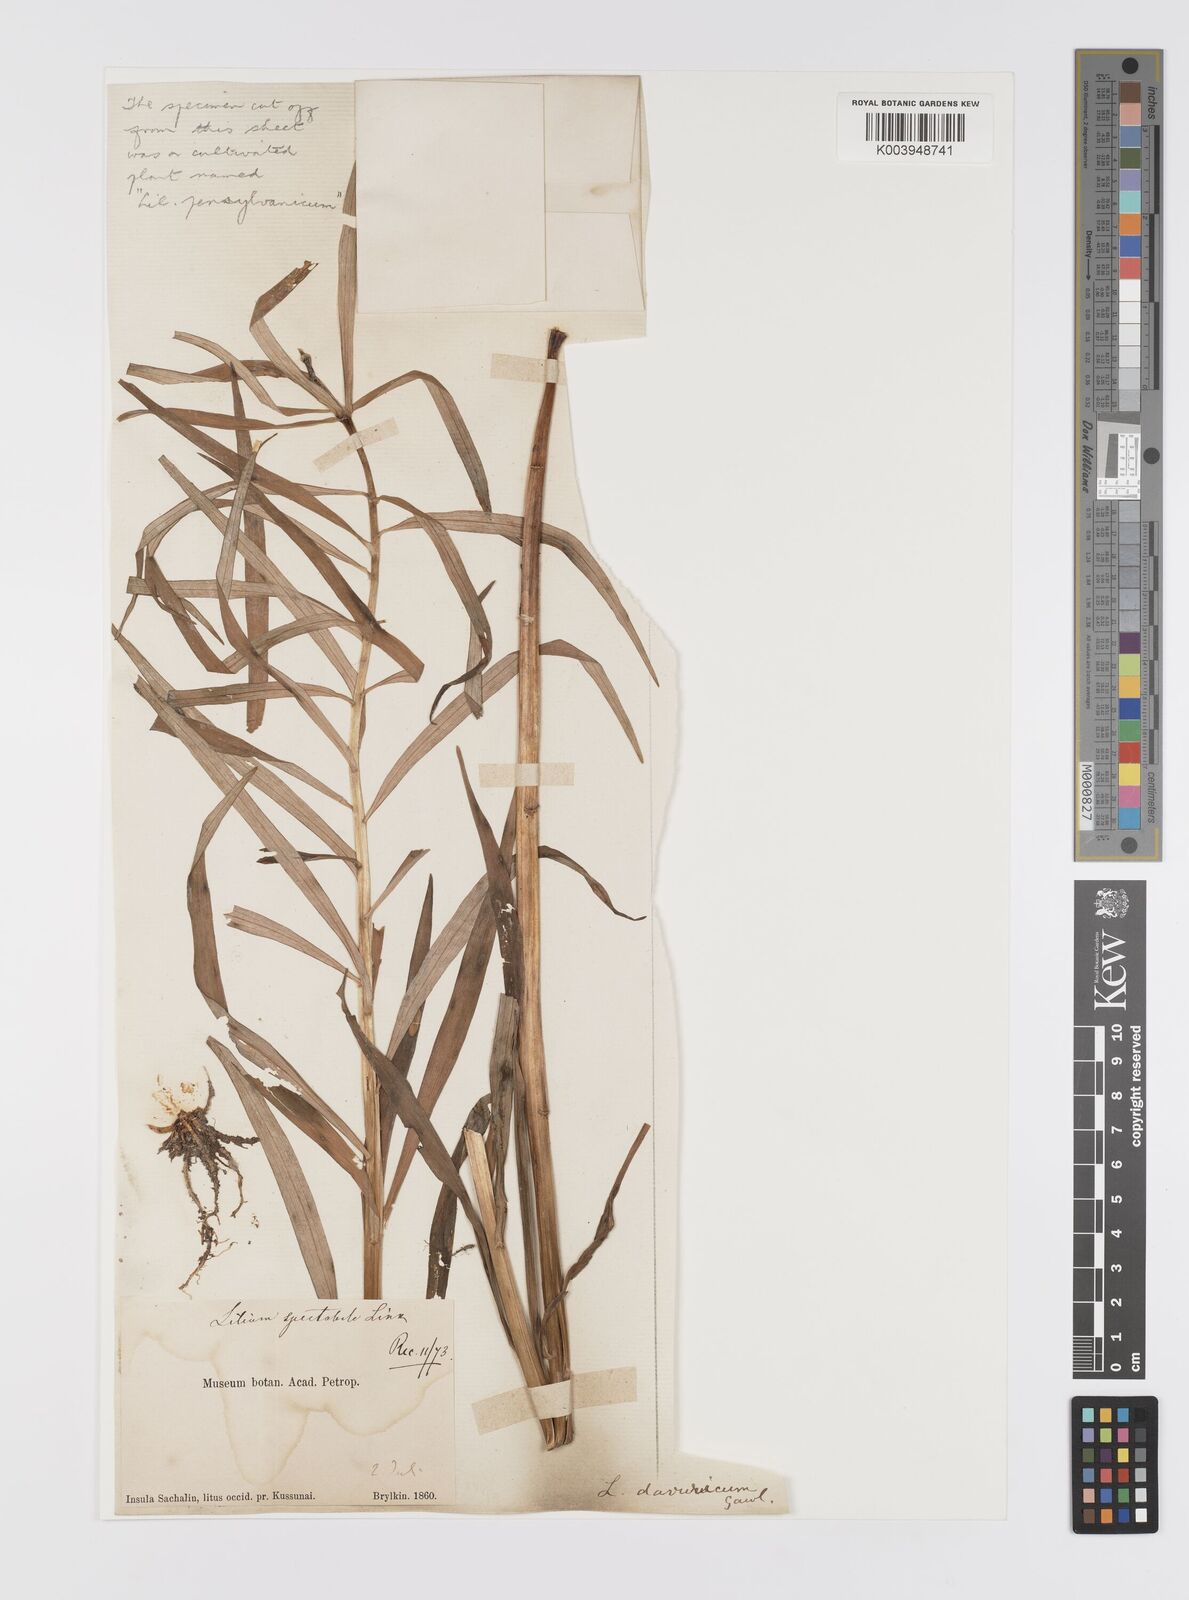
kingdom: Plantae
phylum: Tracheophyta
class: Liliopsida
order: Liliales
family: Liliaceae
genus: Lilium
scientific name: Lilium pensylvanicum
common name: Candlestick lily
